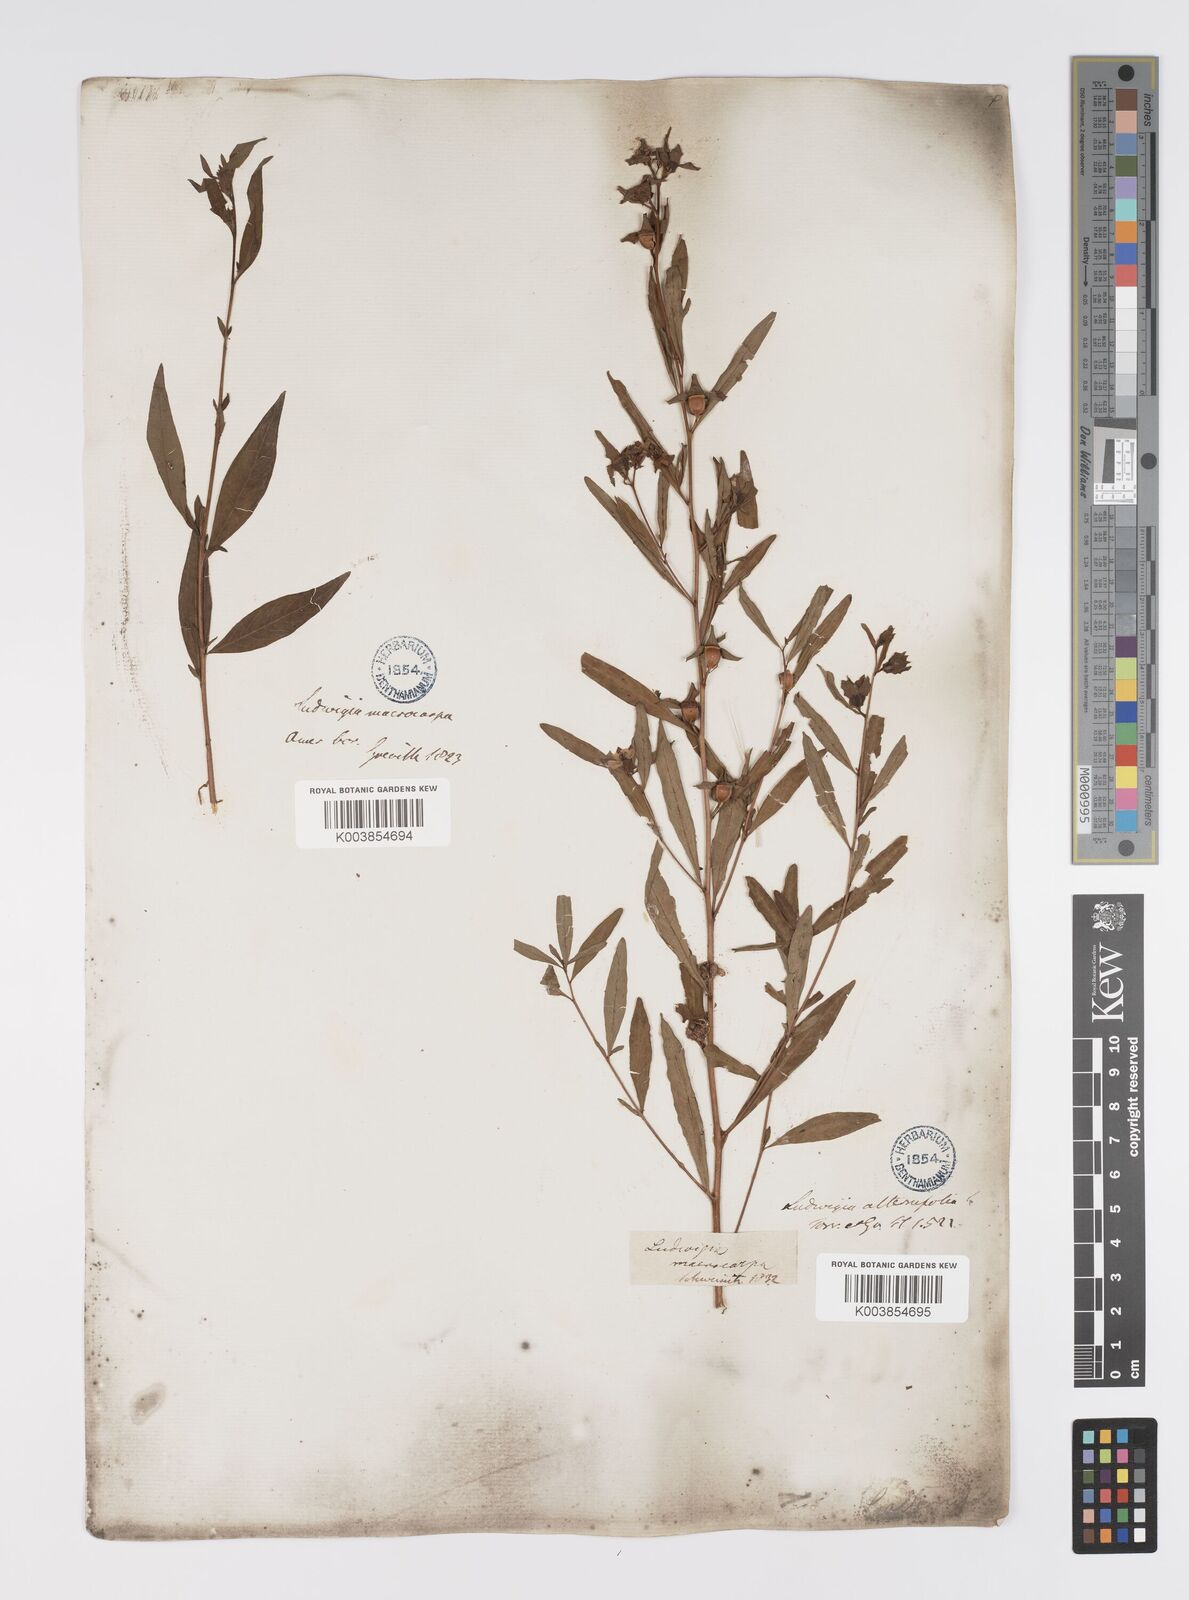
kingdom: Plantae
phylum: Tracheophyta
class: Magnoliopsida
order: Myrtales
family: Onagraceae
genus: Ludwigia
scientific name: Ludwigia alternifolia
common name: Rattlebox
